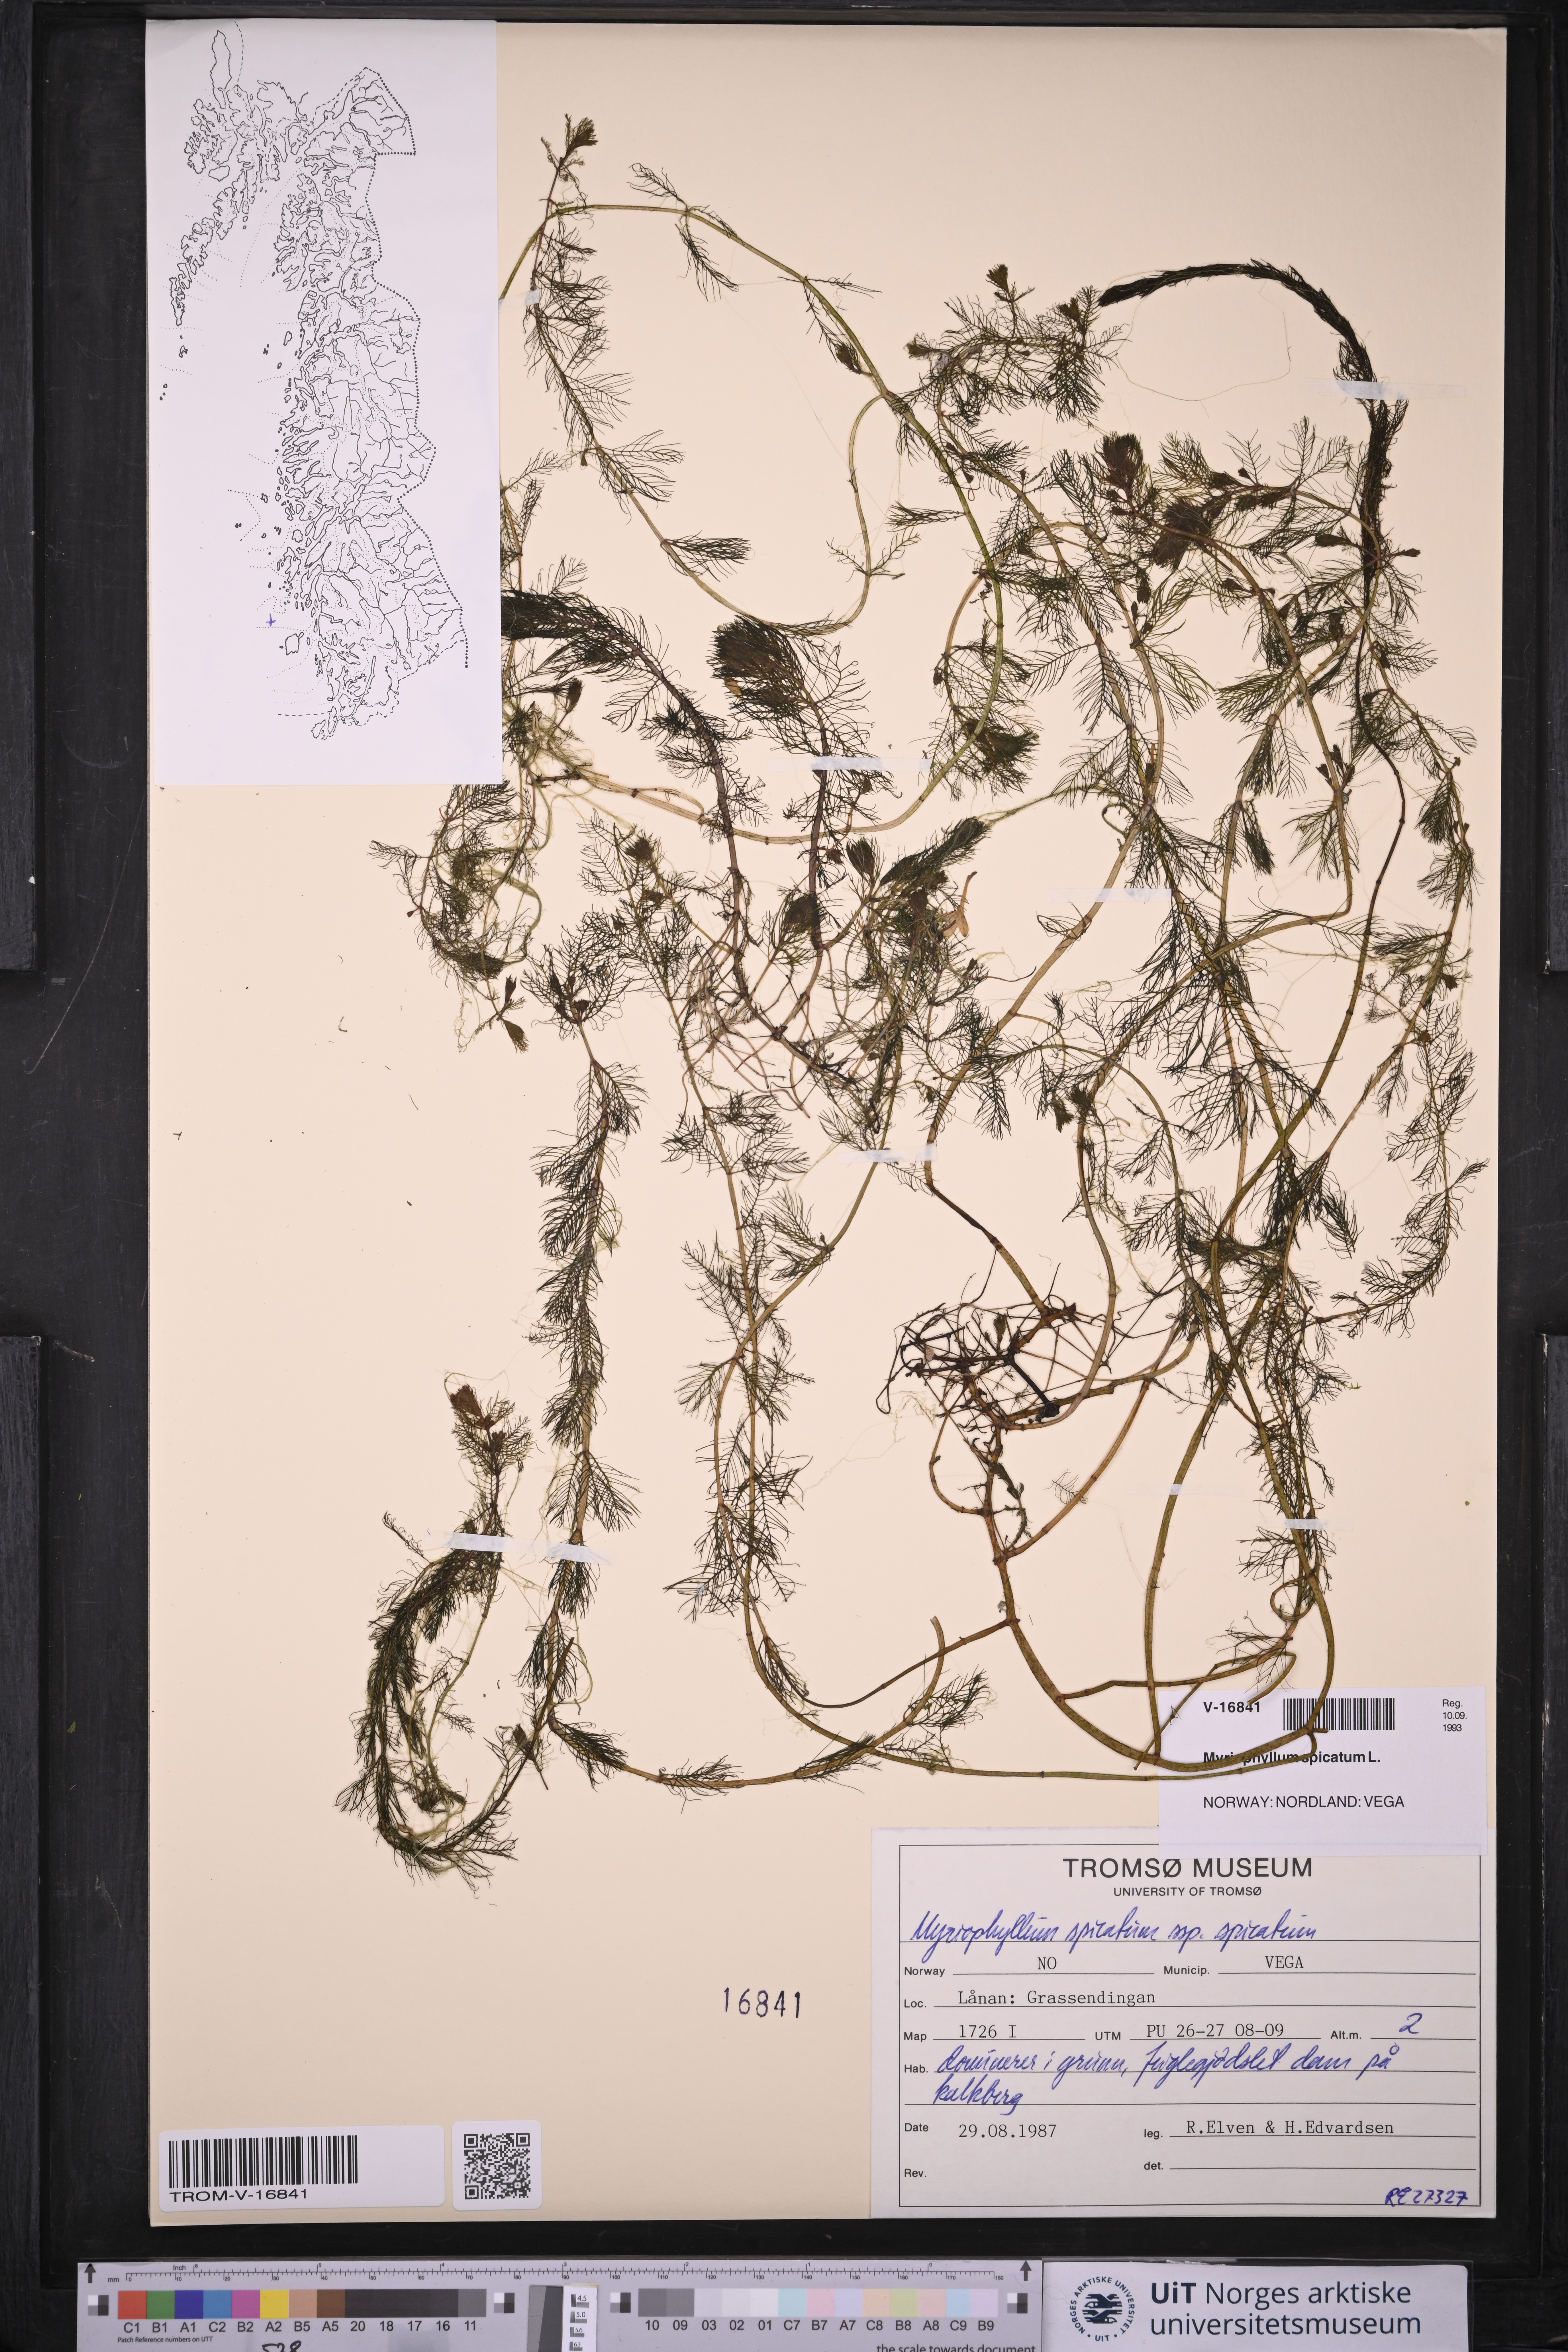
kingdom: Plantae
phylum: Tracheophyta
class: Magnoliopsida
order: Saxifragales
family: Haloragaceae
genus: Myriophyllum
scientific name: Myriophyllum spicatum
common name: Spiked water-milfoil
